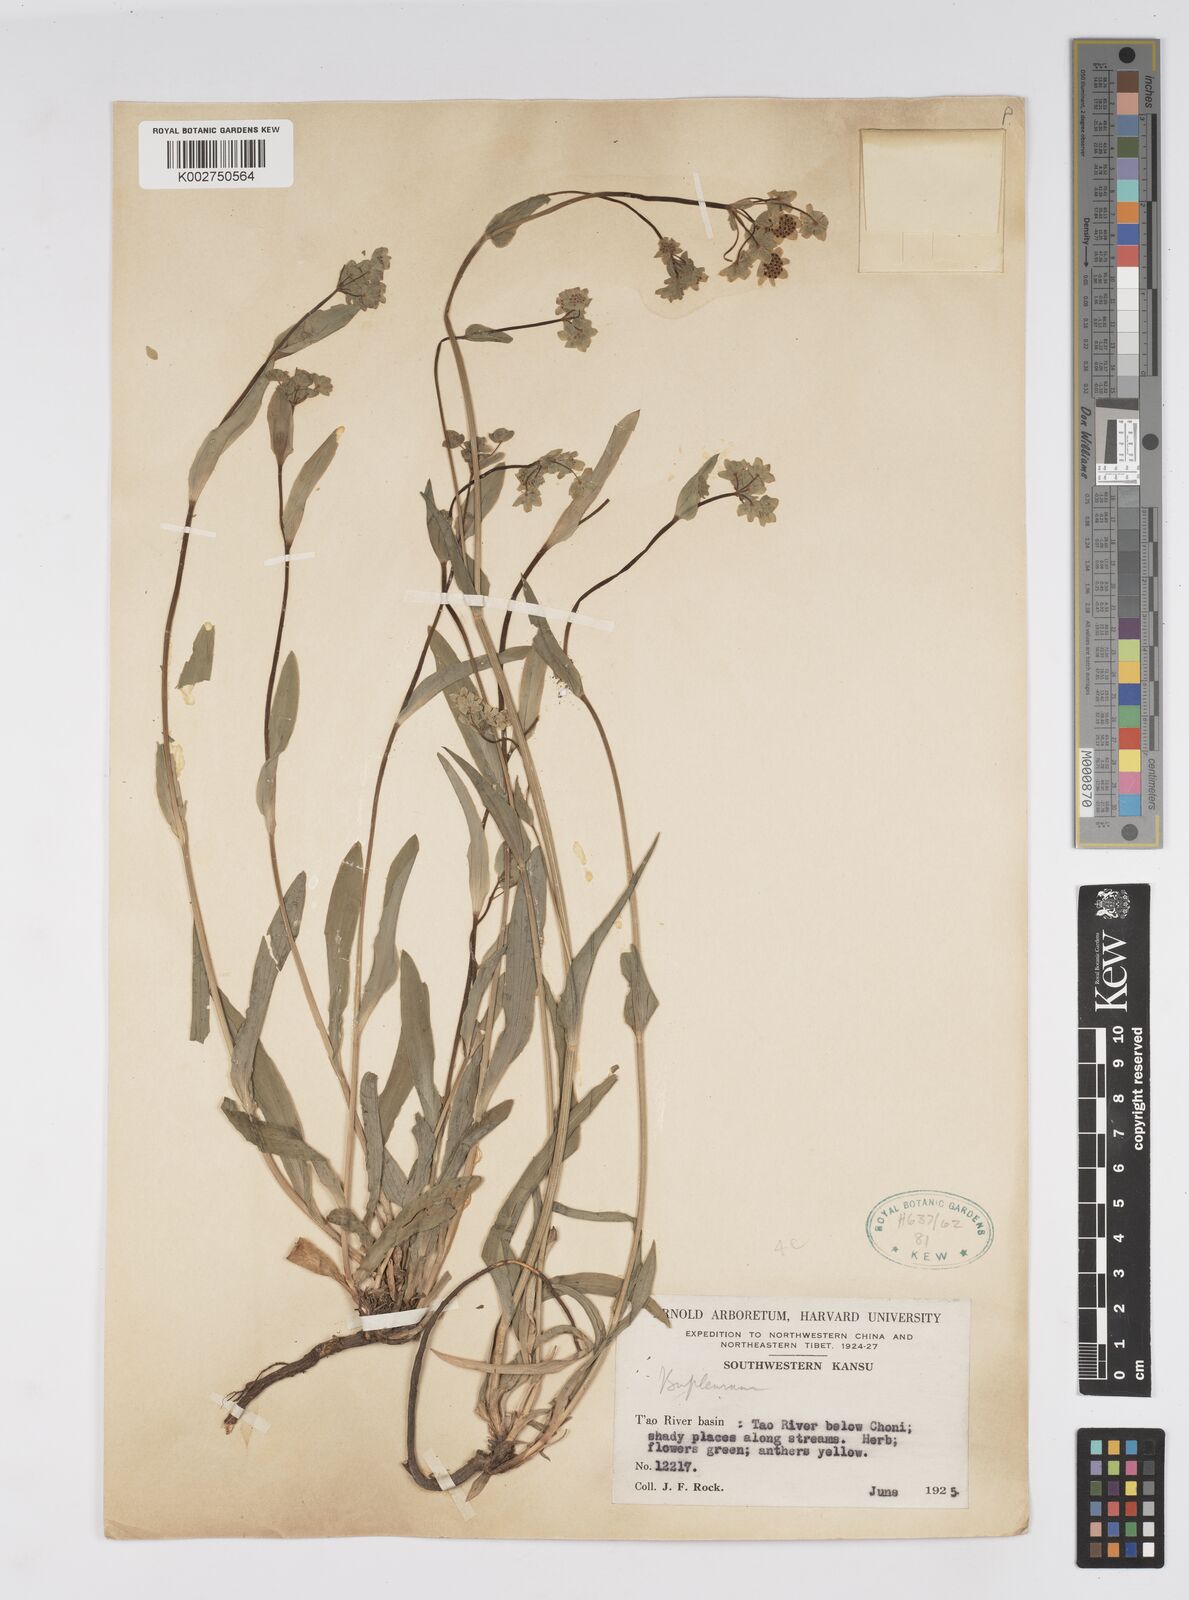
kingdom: Plantae
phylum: Tracheophyta
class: Magnoliopsida
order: Apiales
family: Apiaceae
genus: Bupleurum
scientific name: Bupleurum
